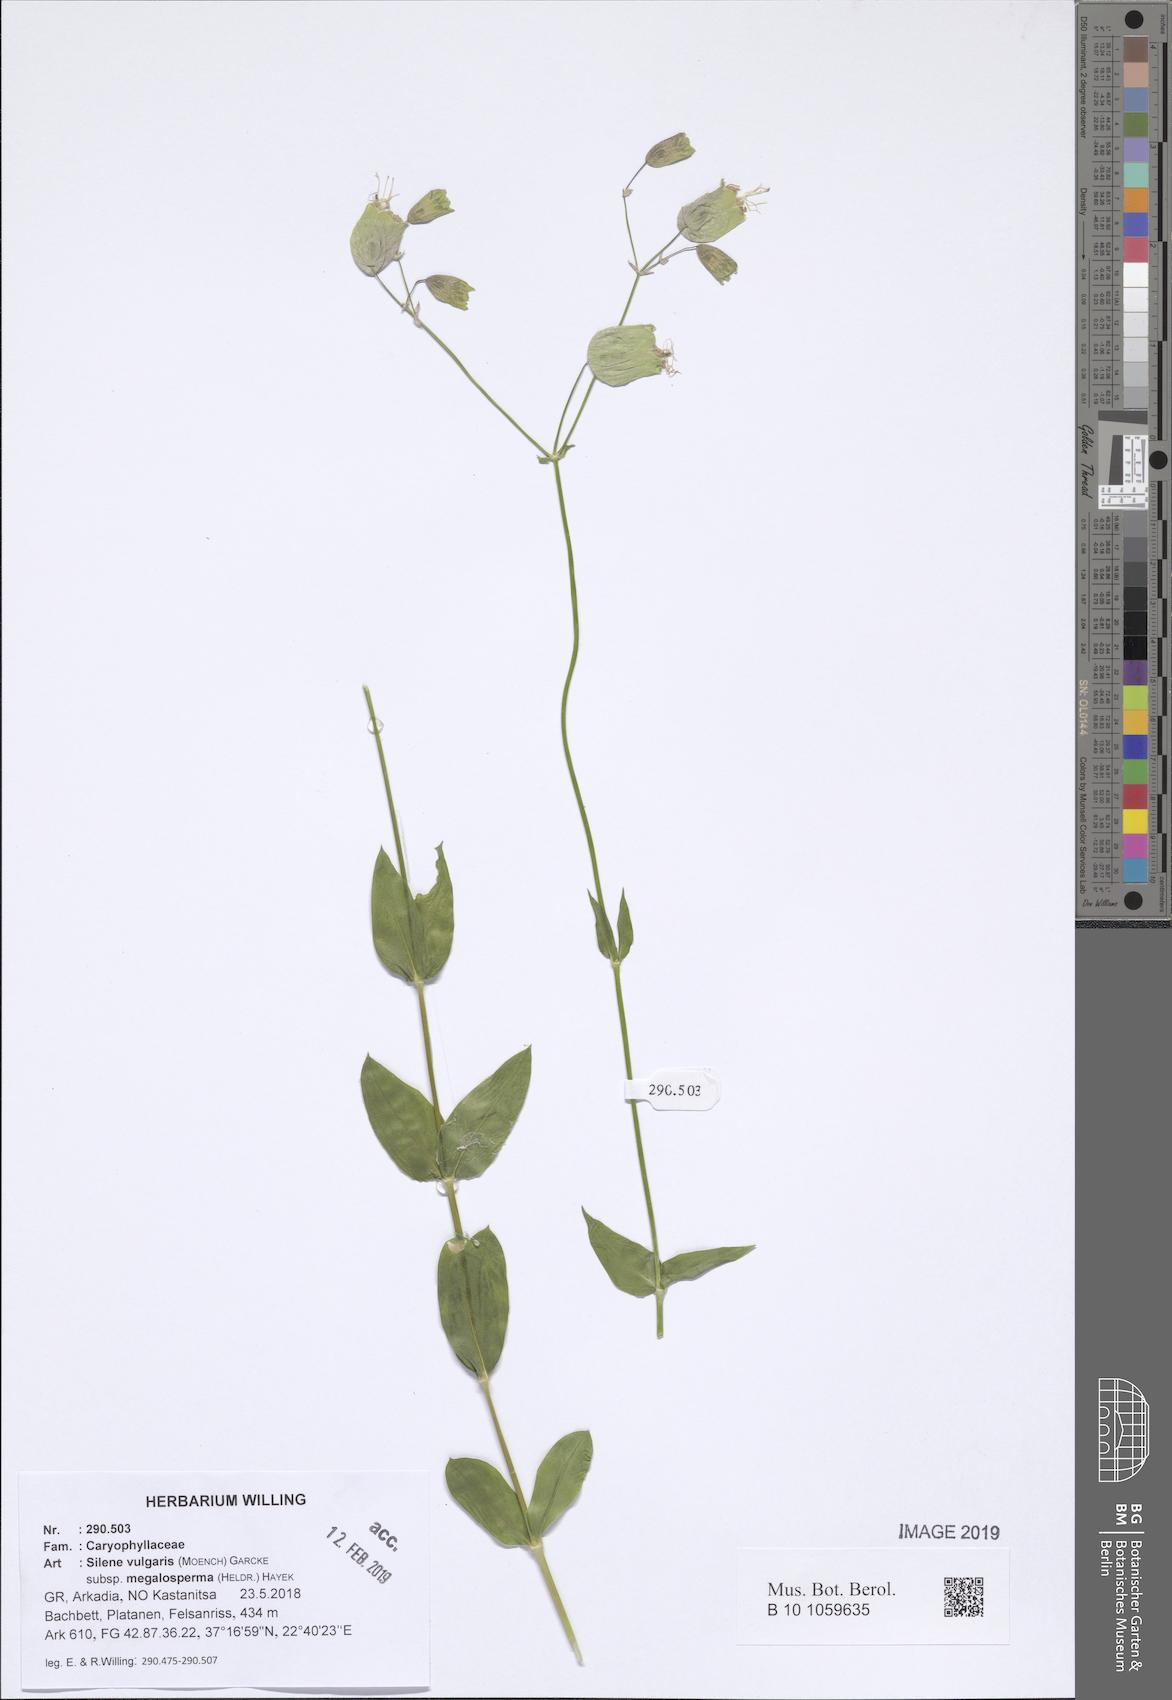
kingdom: Plantae
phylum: Tracheophyta
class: Magnoliopsida
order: Caryophyllales
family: Caryophyllaceae
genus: Silene
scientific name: Silene vulgaris
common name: Bladder campion
